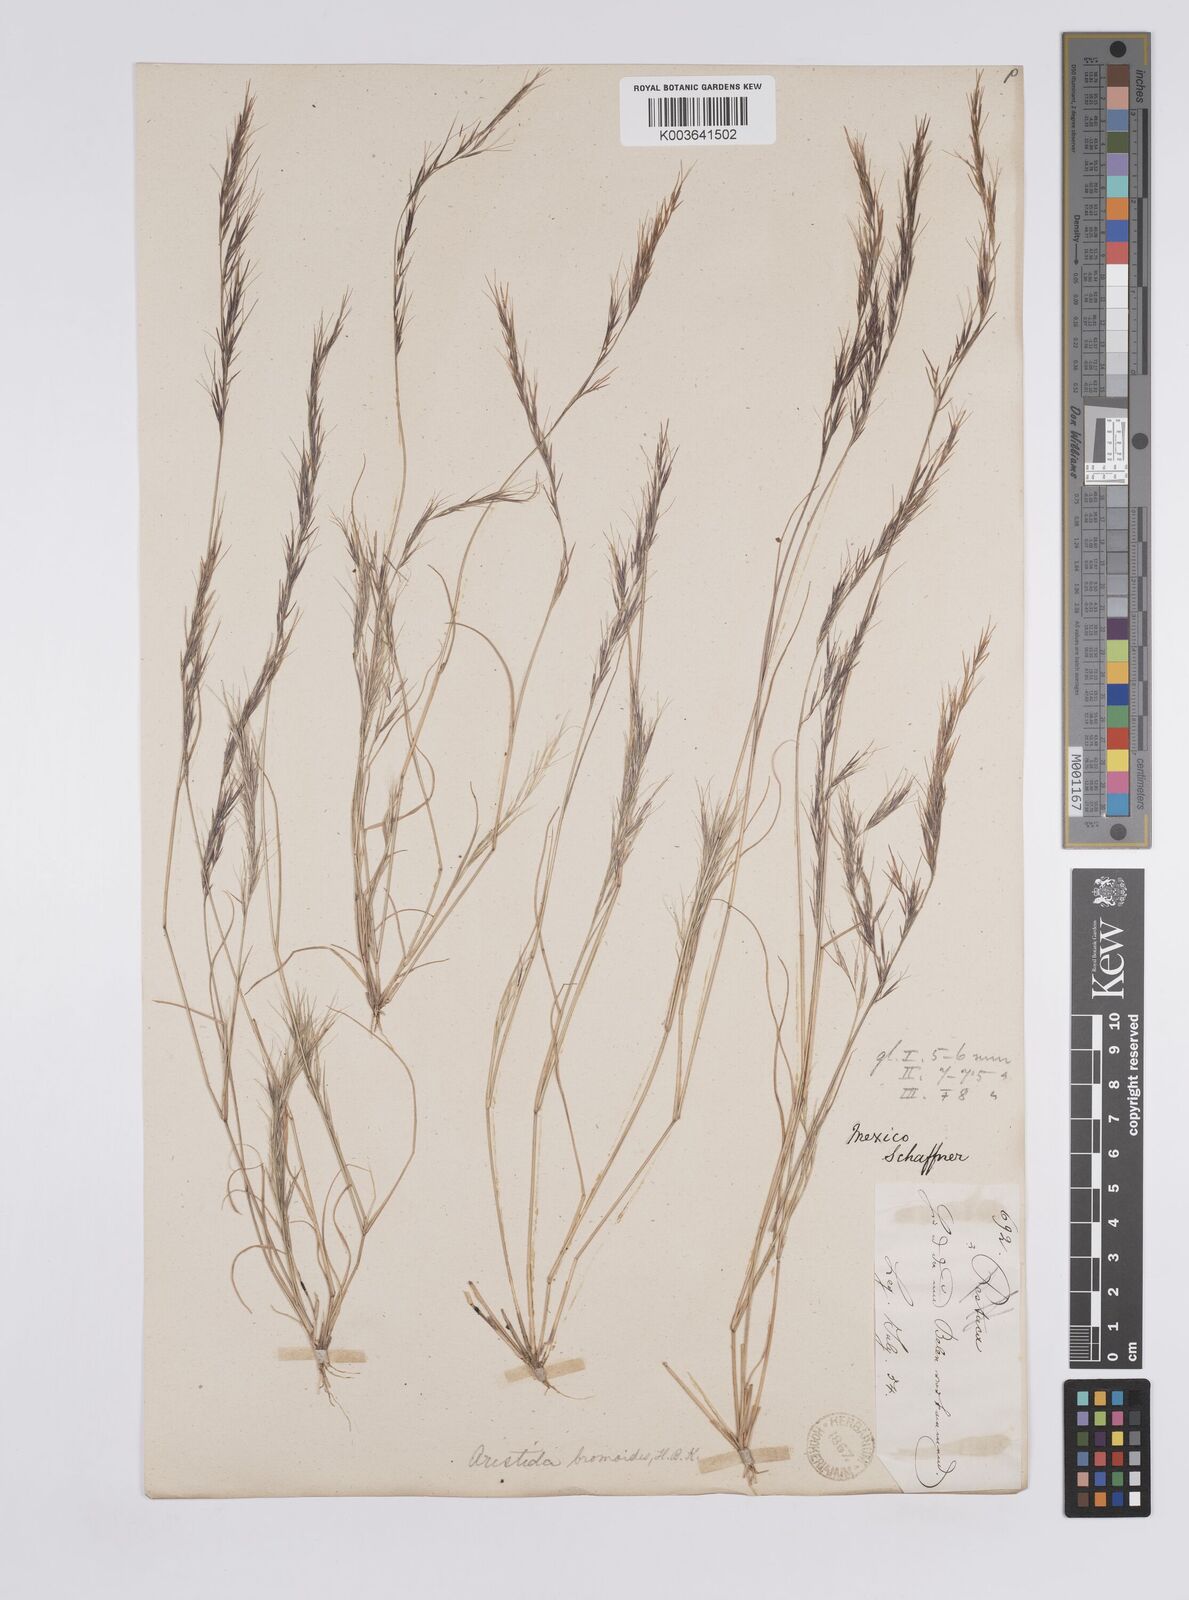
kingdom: Plantae
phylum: Tracheophyta
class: Liliopsida
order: Poales
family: Poaceae
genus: Aristida
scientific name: Aristida adscensionis
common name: Sixweeks threeawn
